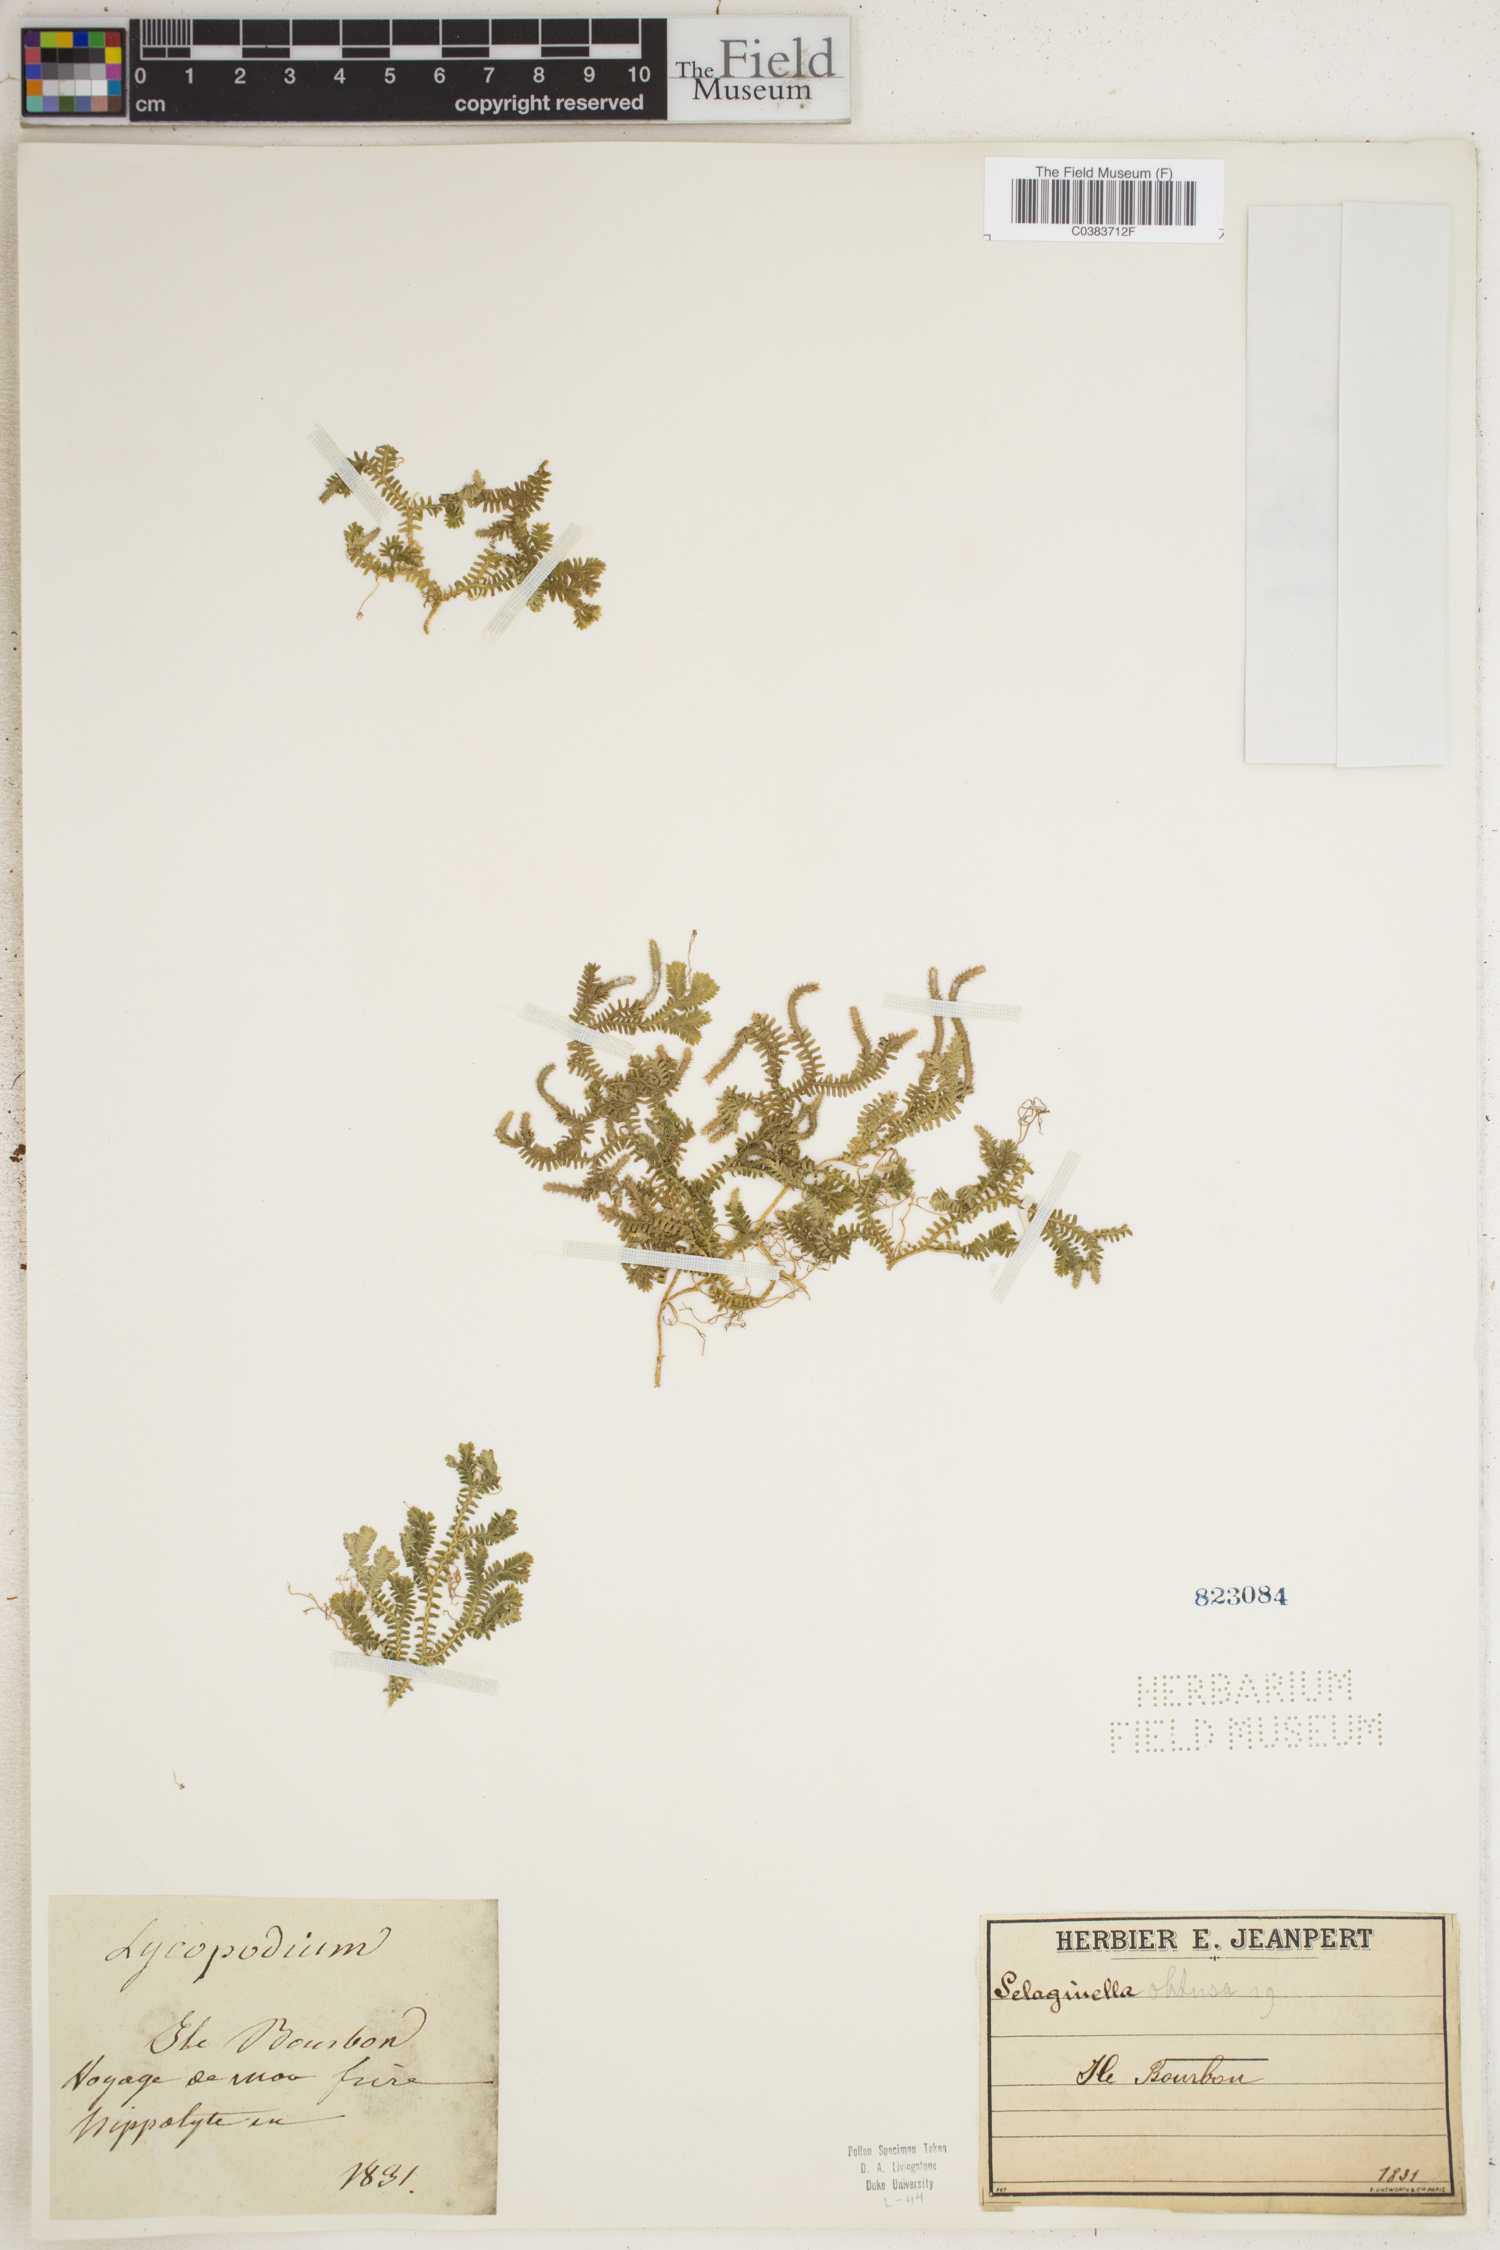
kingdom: Plantae
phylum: Tracheophyta
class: Lycopodiopsida
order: Selaginellales
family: Selaginellaceae
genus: Selaginella
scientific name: Selaginella obtusa
